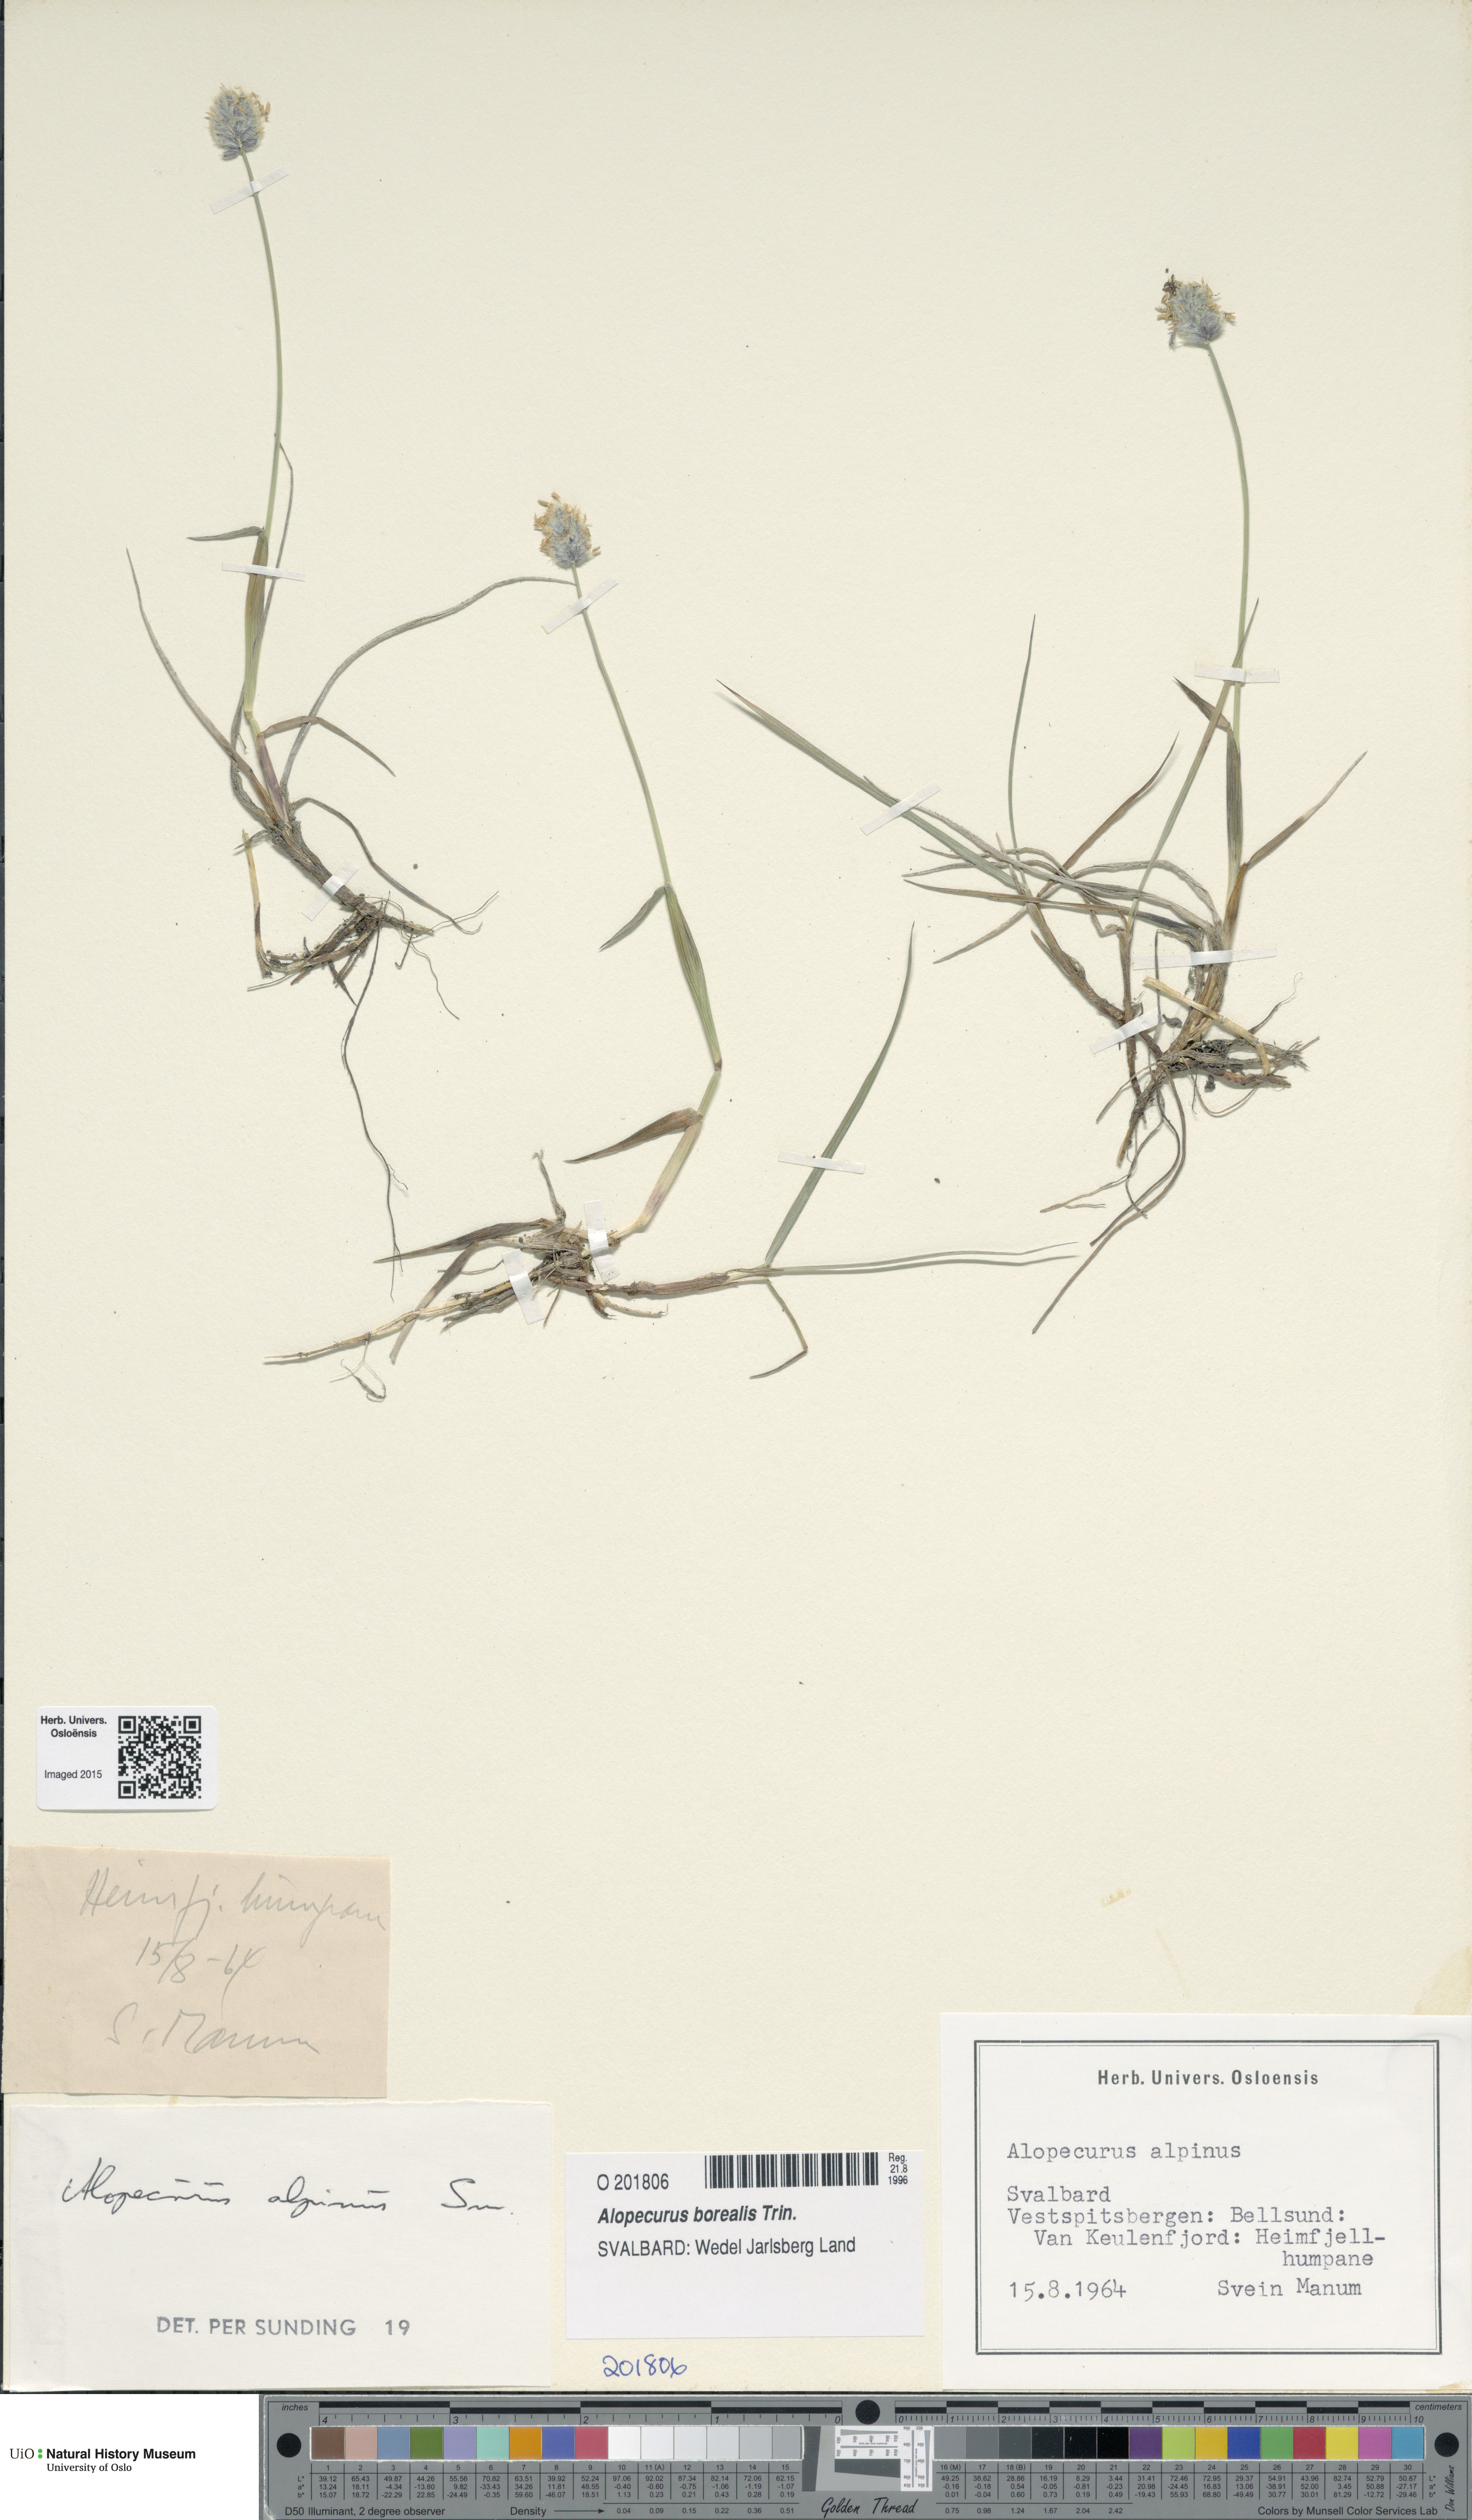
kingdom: Plantae
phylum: Tracheophyta
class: Liliopsida
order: Poales
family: Poaceae
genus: Alopecurus
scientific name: Alopecurus magellanicus
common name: Alpine foxtail
